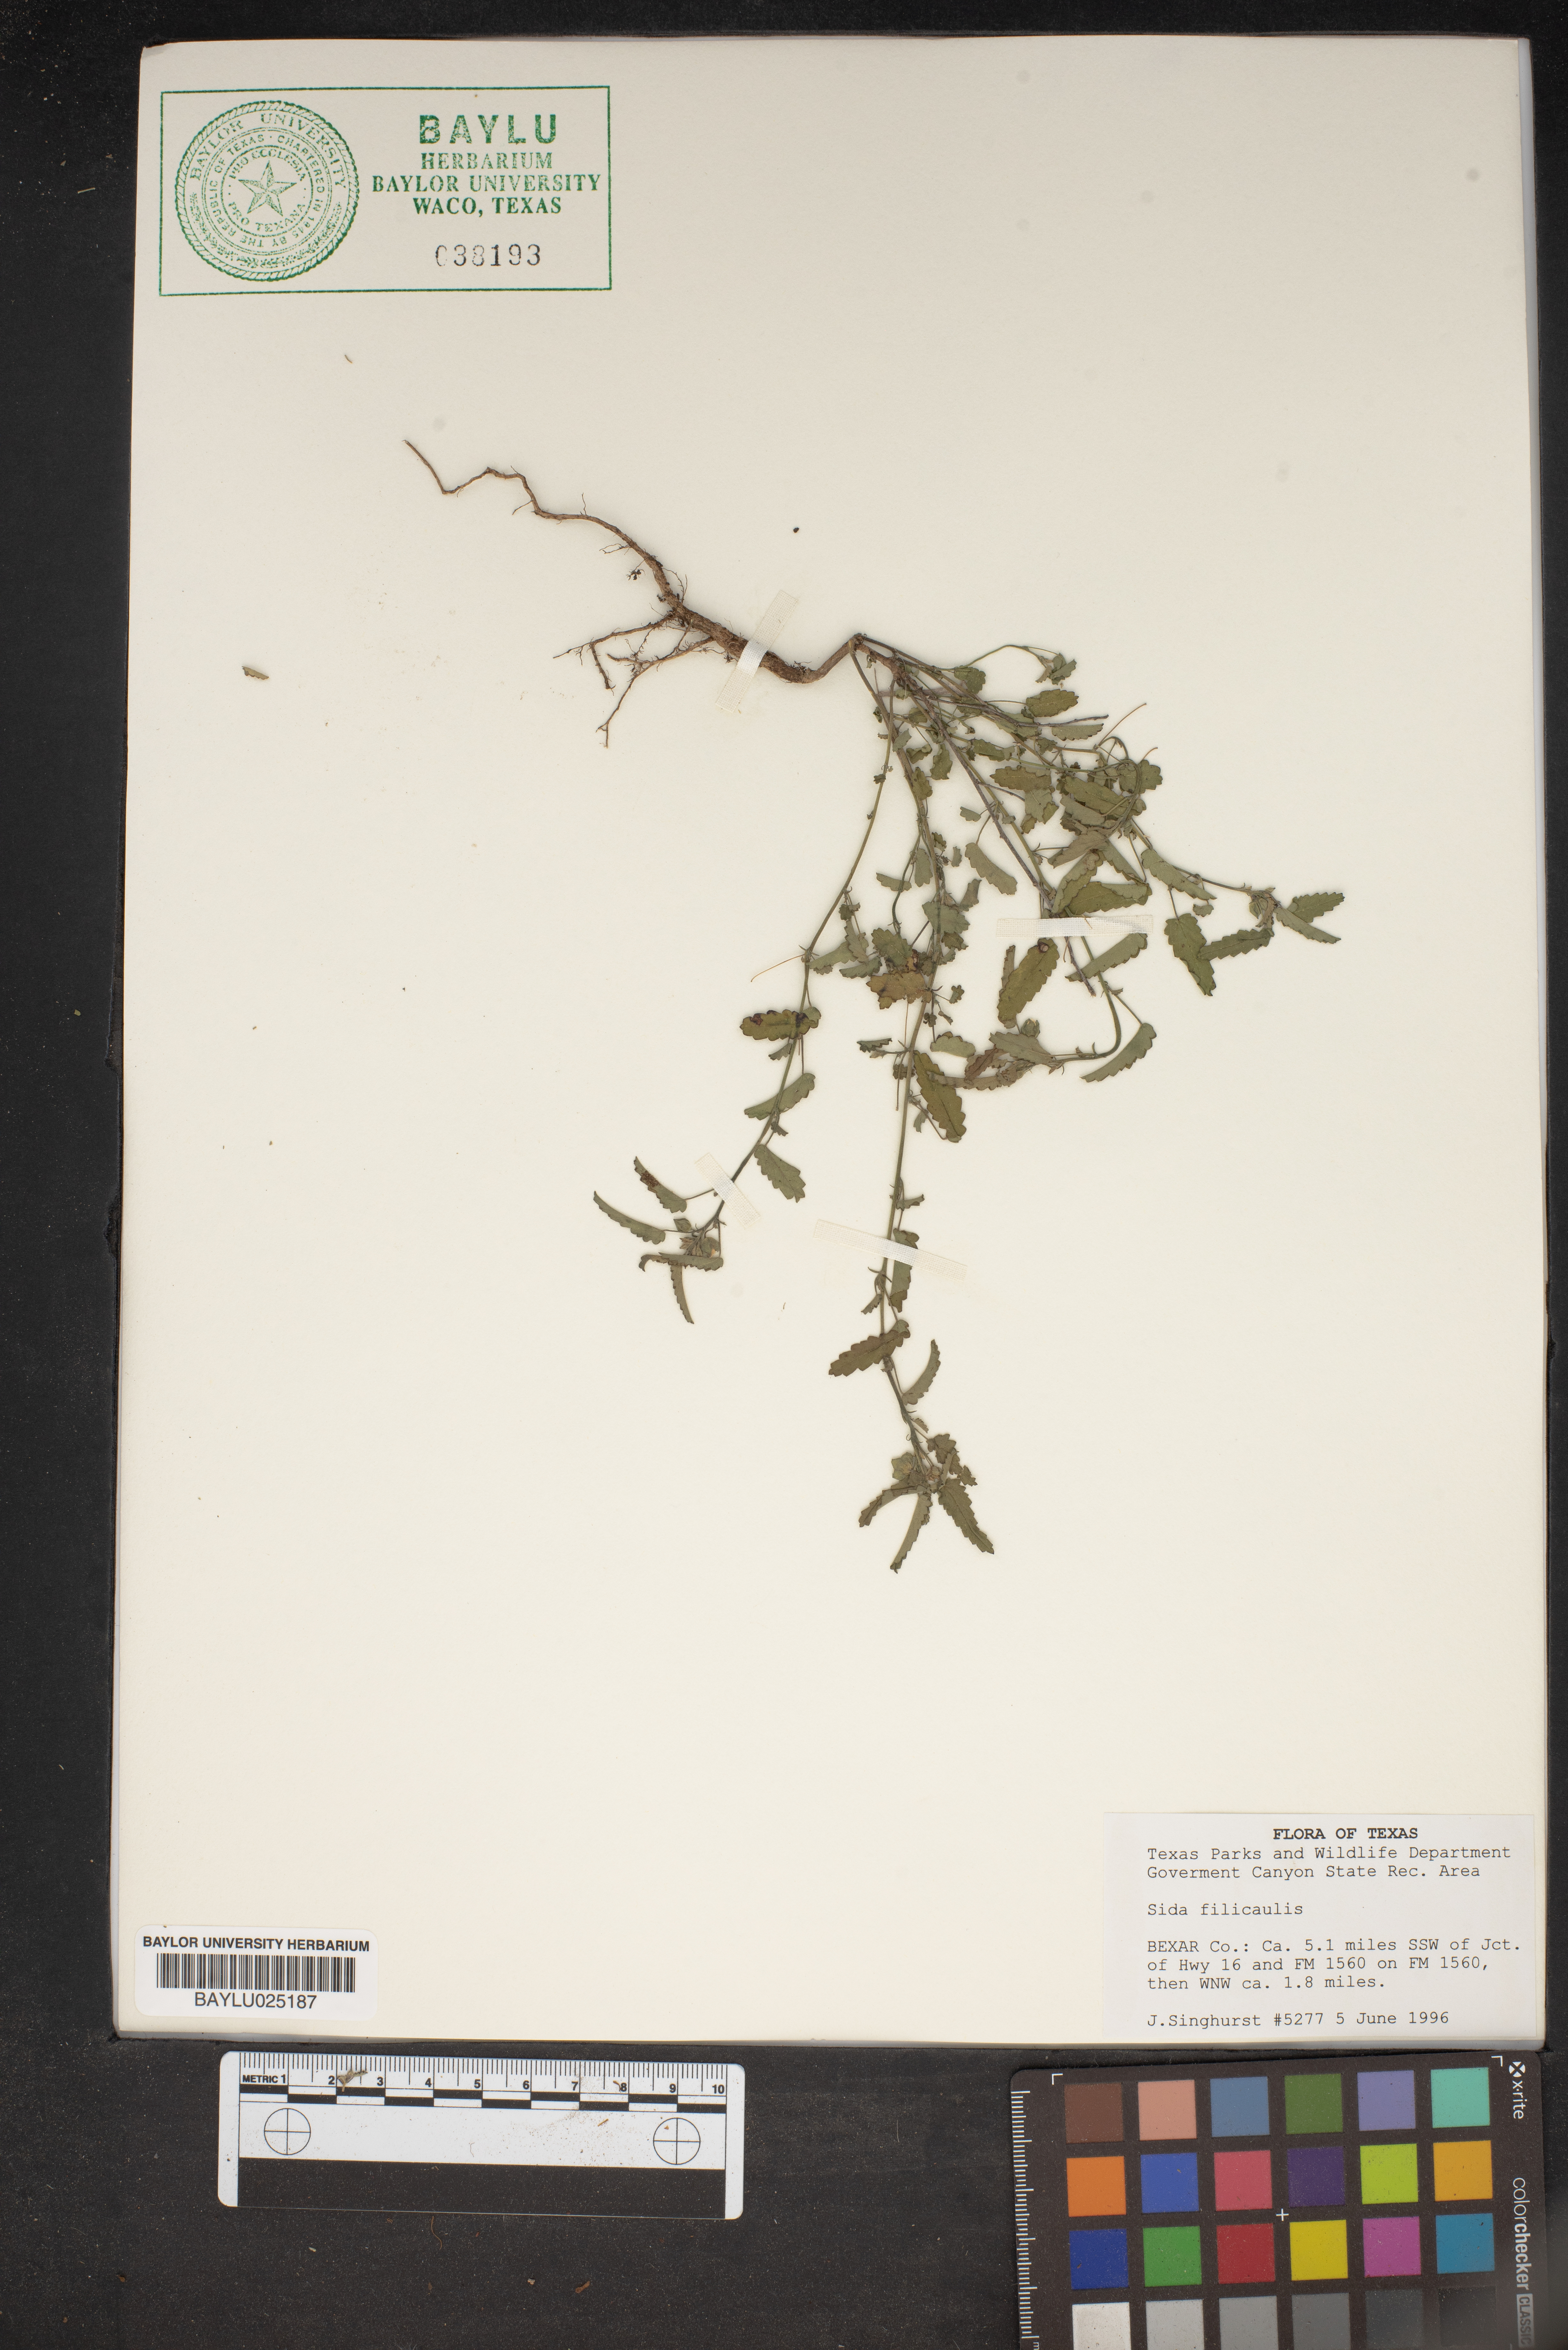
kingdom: Plantae
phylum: Tracheophyta
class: Magnoliopsida
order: Malvales
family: Malvaceae
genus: Sida
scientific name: Sida abutilifolia
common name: Spreading fanpetals
